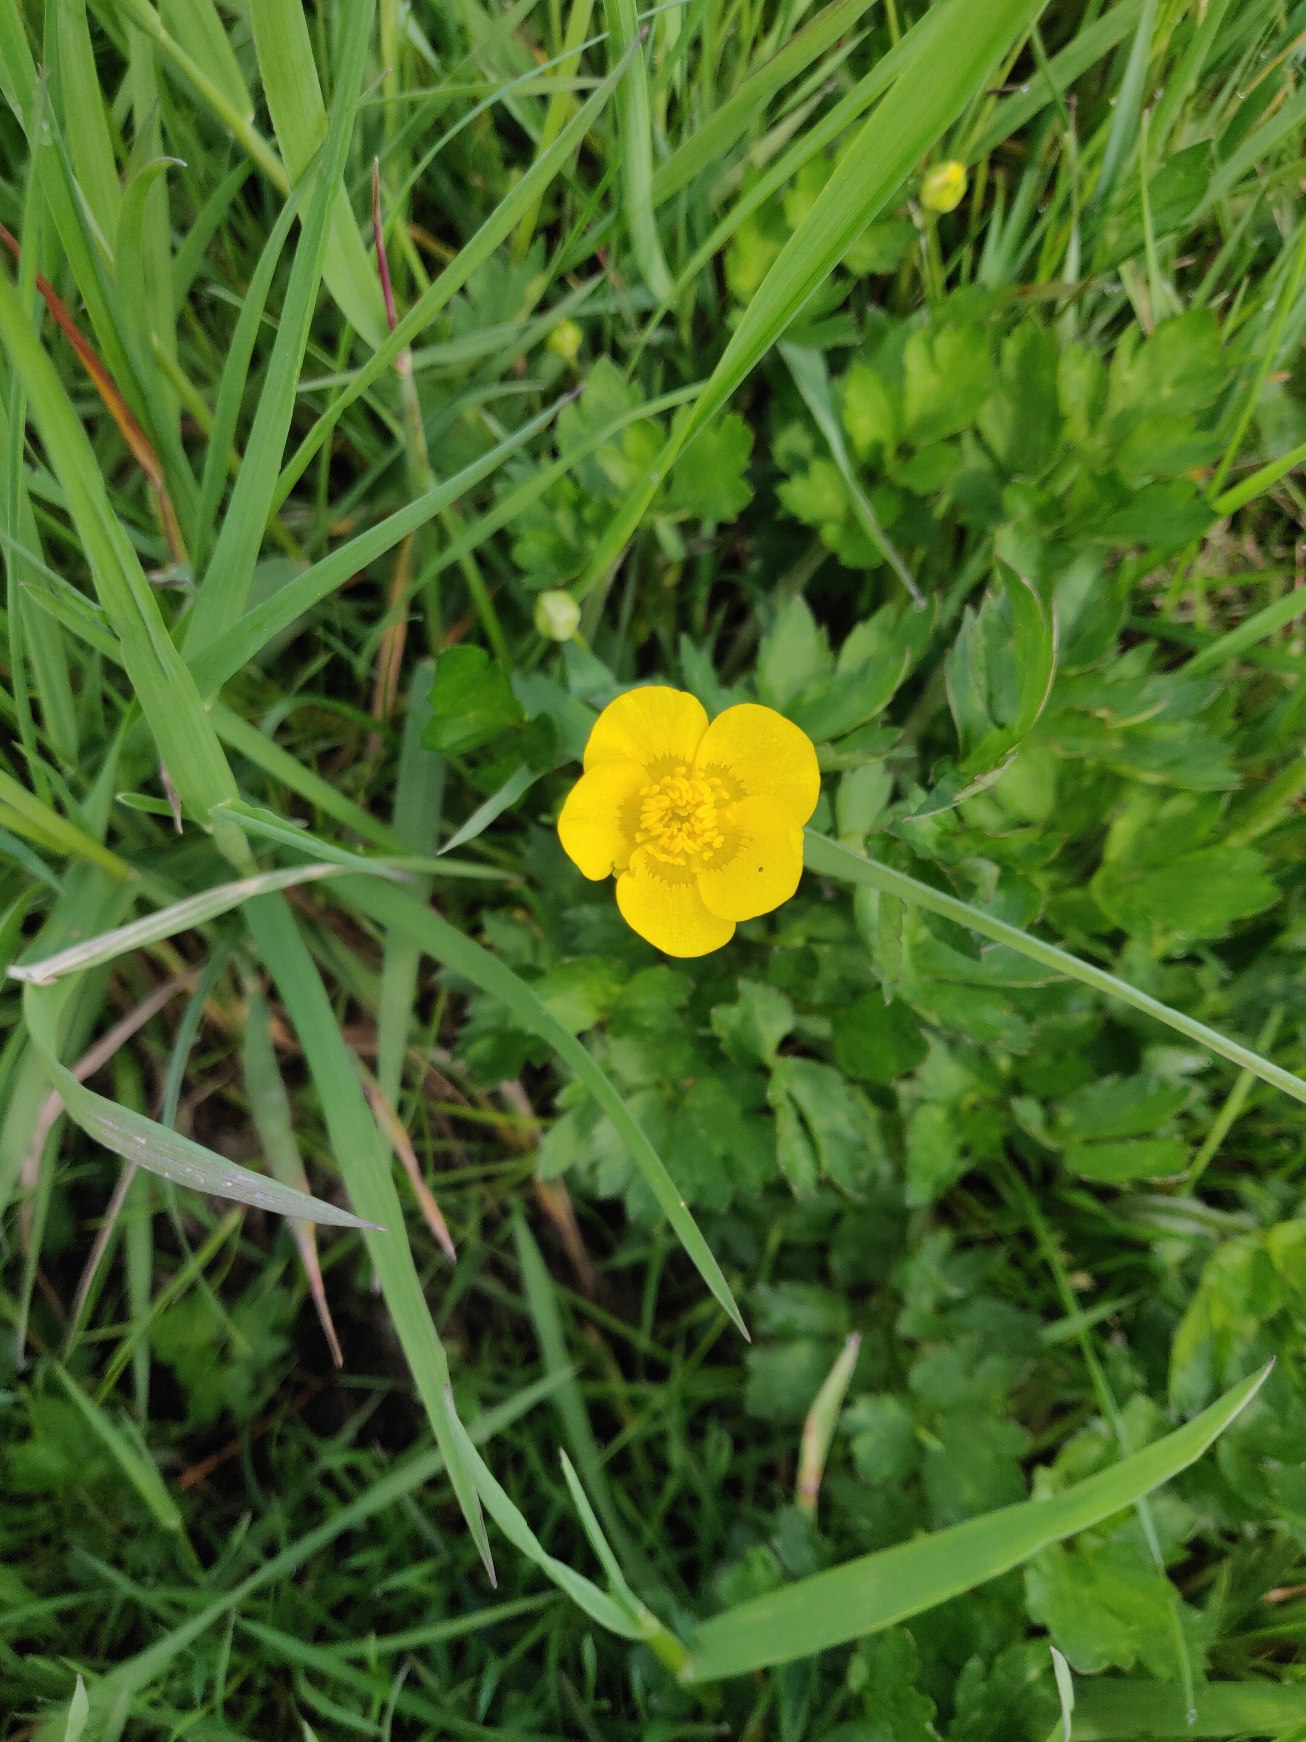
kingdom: Plantae
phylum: Tracheophyta
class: Magnoliopsida
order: Ranunculales
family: Ranunculaceae
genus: Ranunculus
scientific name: Ranunculus repens
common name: Lav ranunkel
